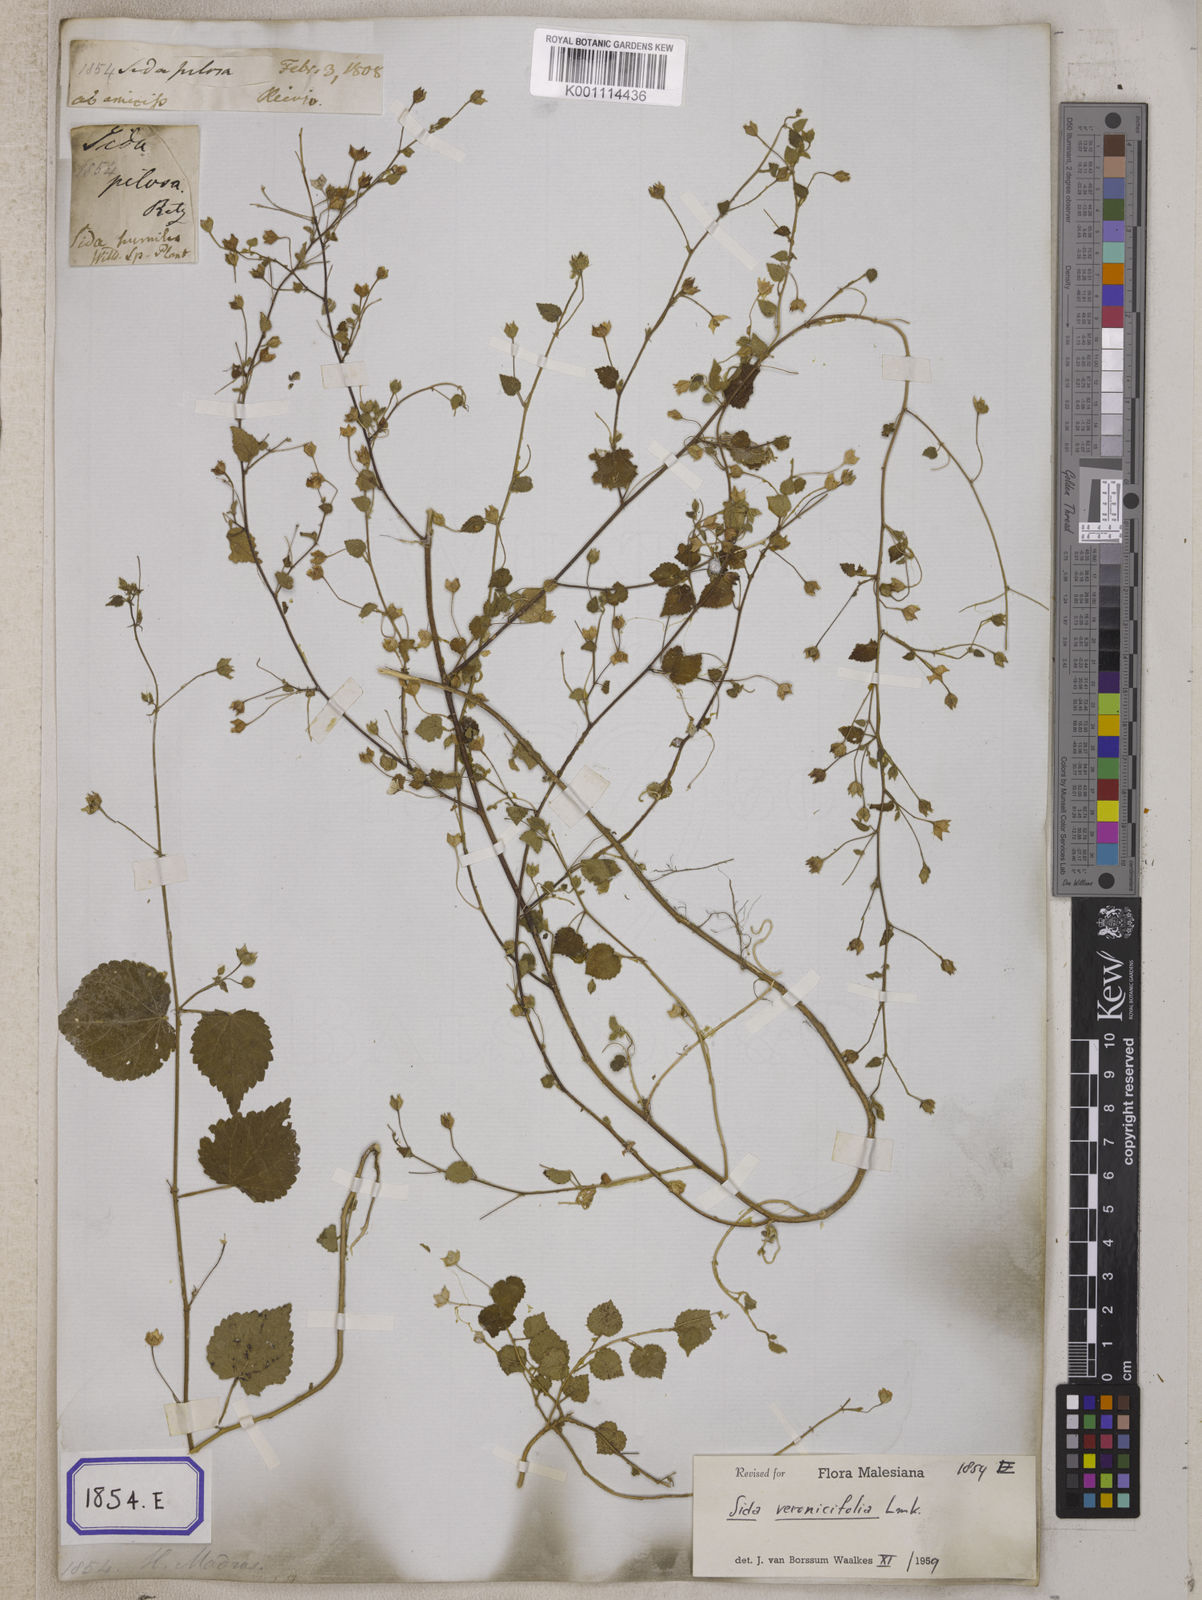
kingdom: Plantae
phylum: Tracheophyta
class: Magnoliopsida
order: Malvales
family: Malvaceae
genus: Sida
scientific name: Sida cordata
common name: Long-stalk sida
